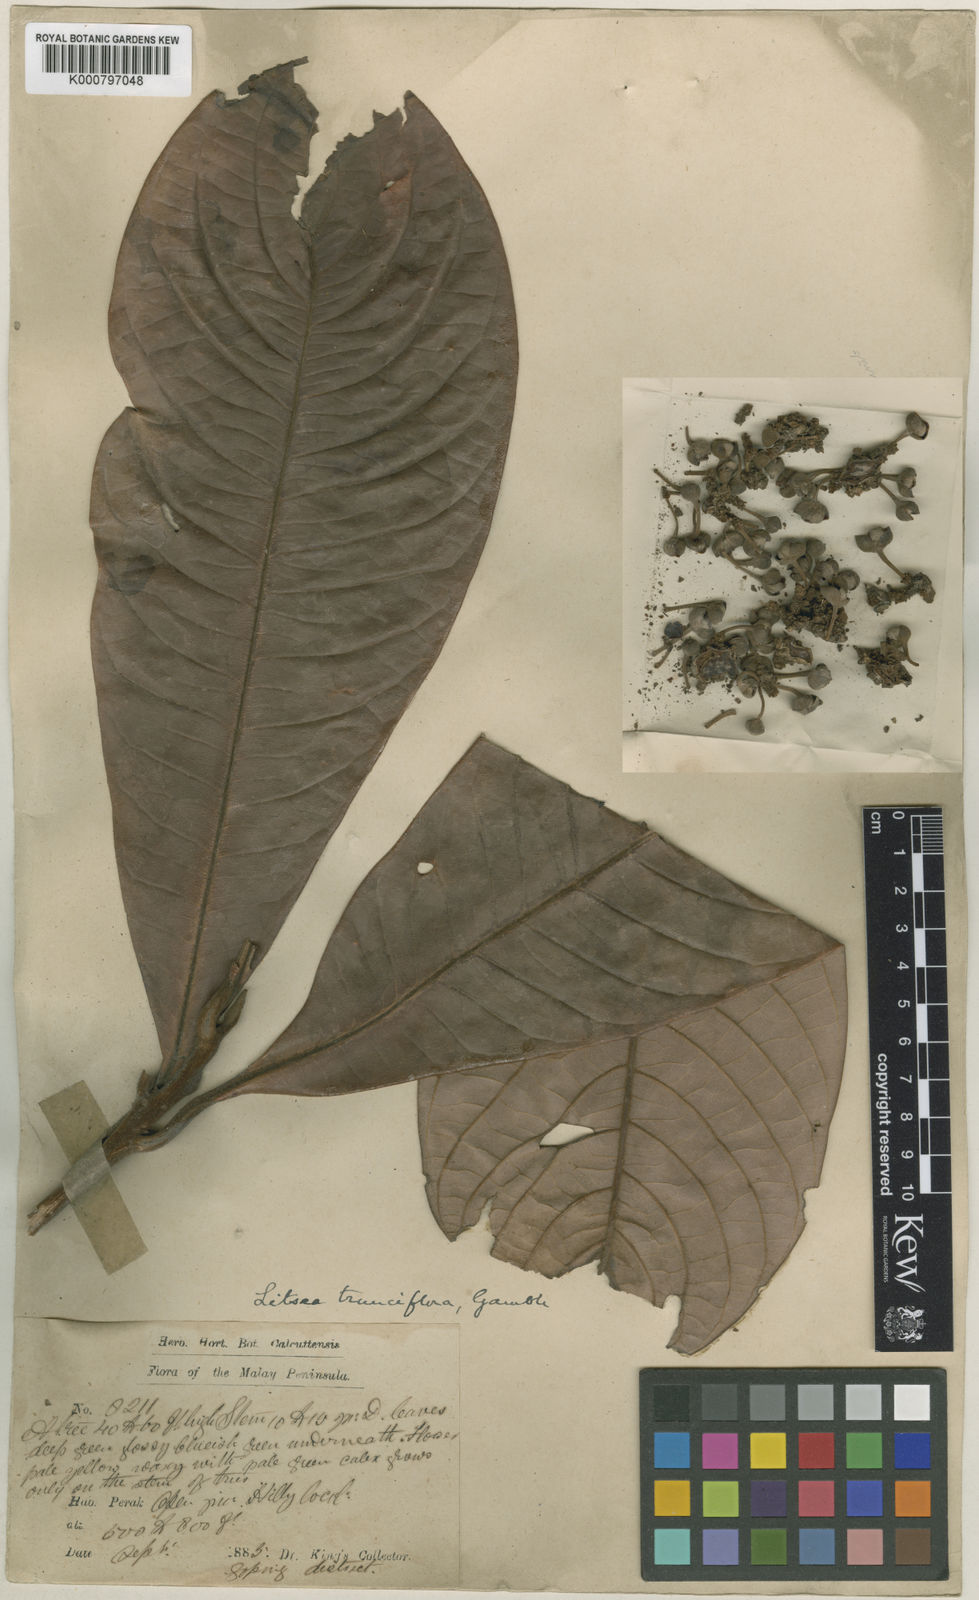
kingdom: Plantae
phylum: Tracheophyta
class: Magnoliopsida
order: Laurales
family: Lauraceae
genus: Litsea
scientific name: Litsea johorensis
